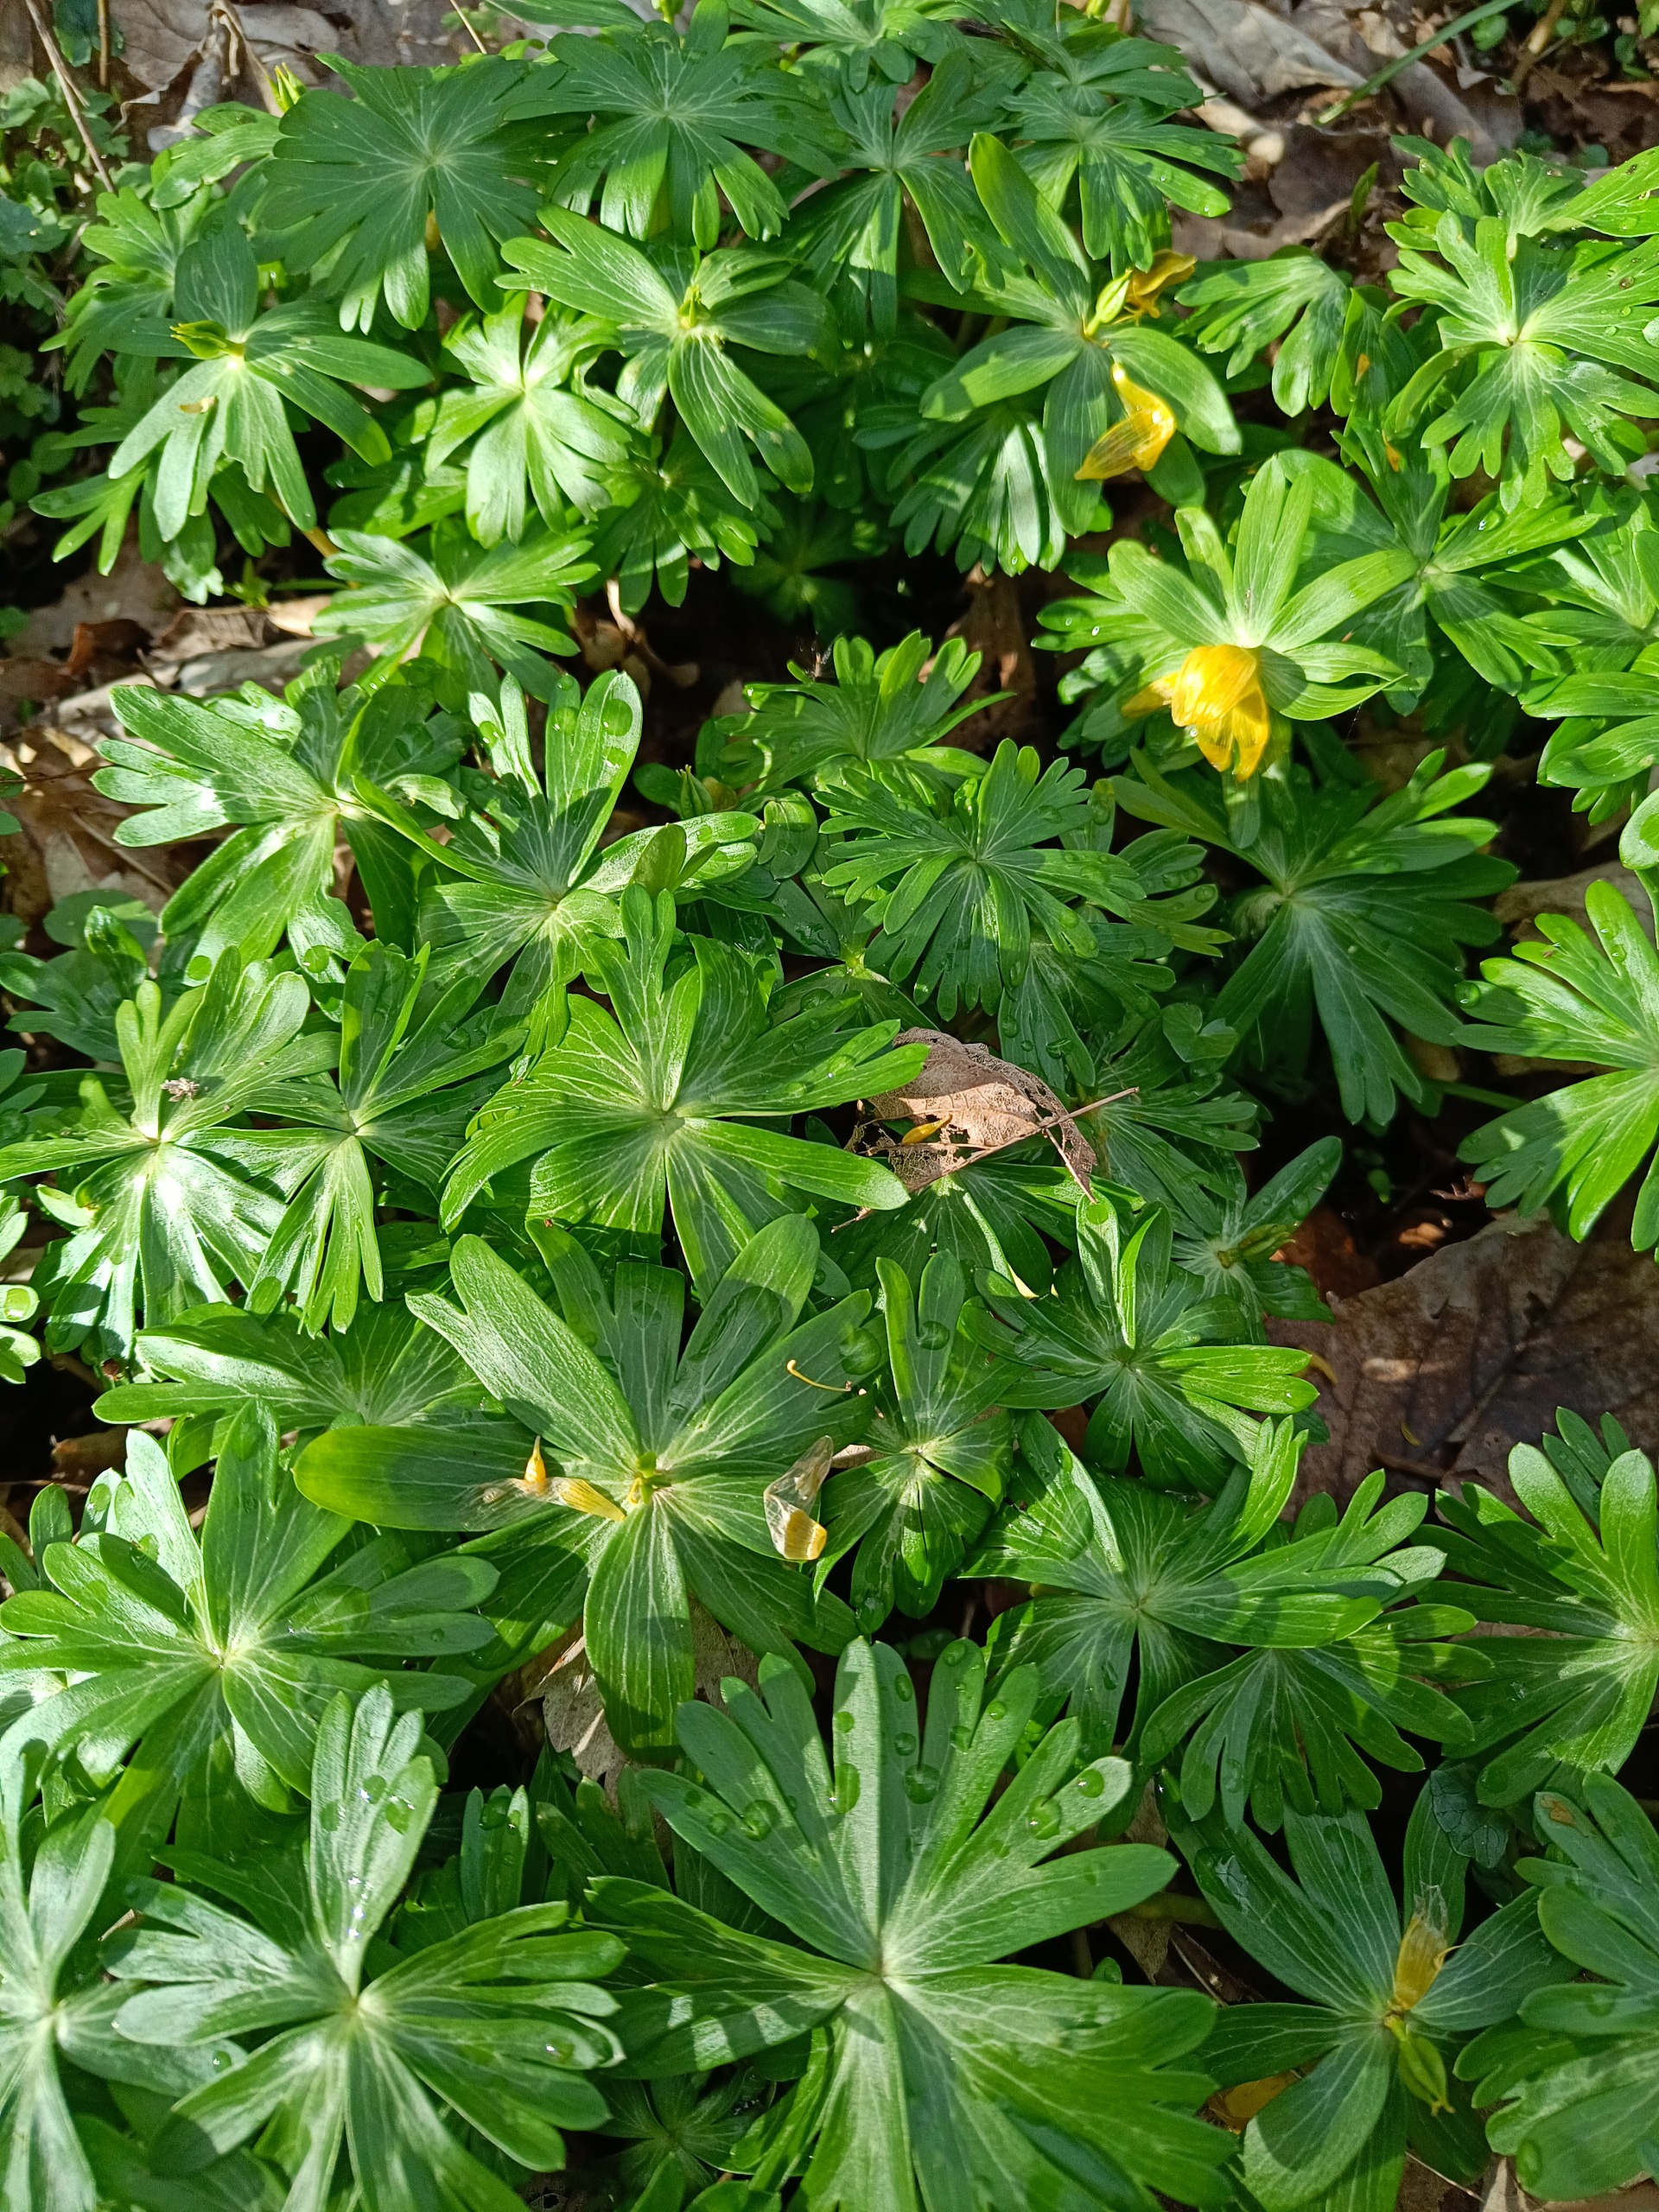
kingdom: Plantae
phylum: Tracheophyta
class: Magnoliopsida
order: Ranunculales
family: Ranunculaceae
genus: Eranthis
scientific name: Eranthis hyemalis
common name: Erantis
